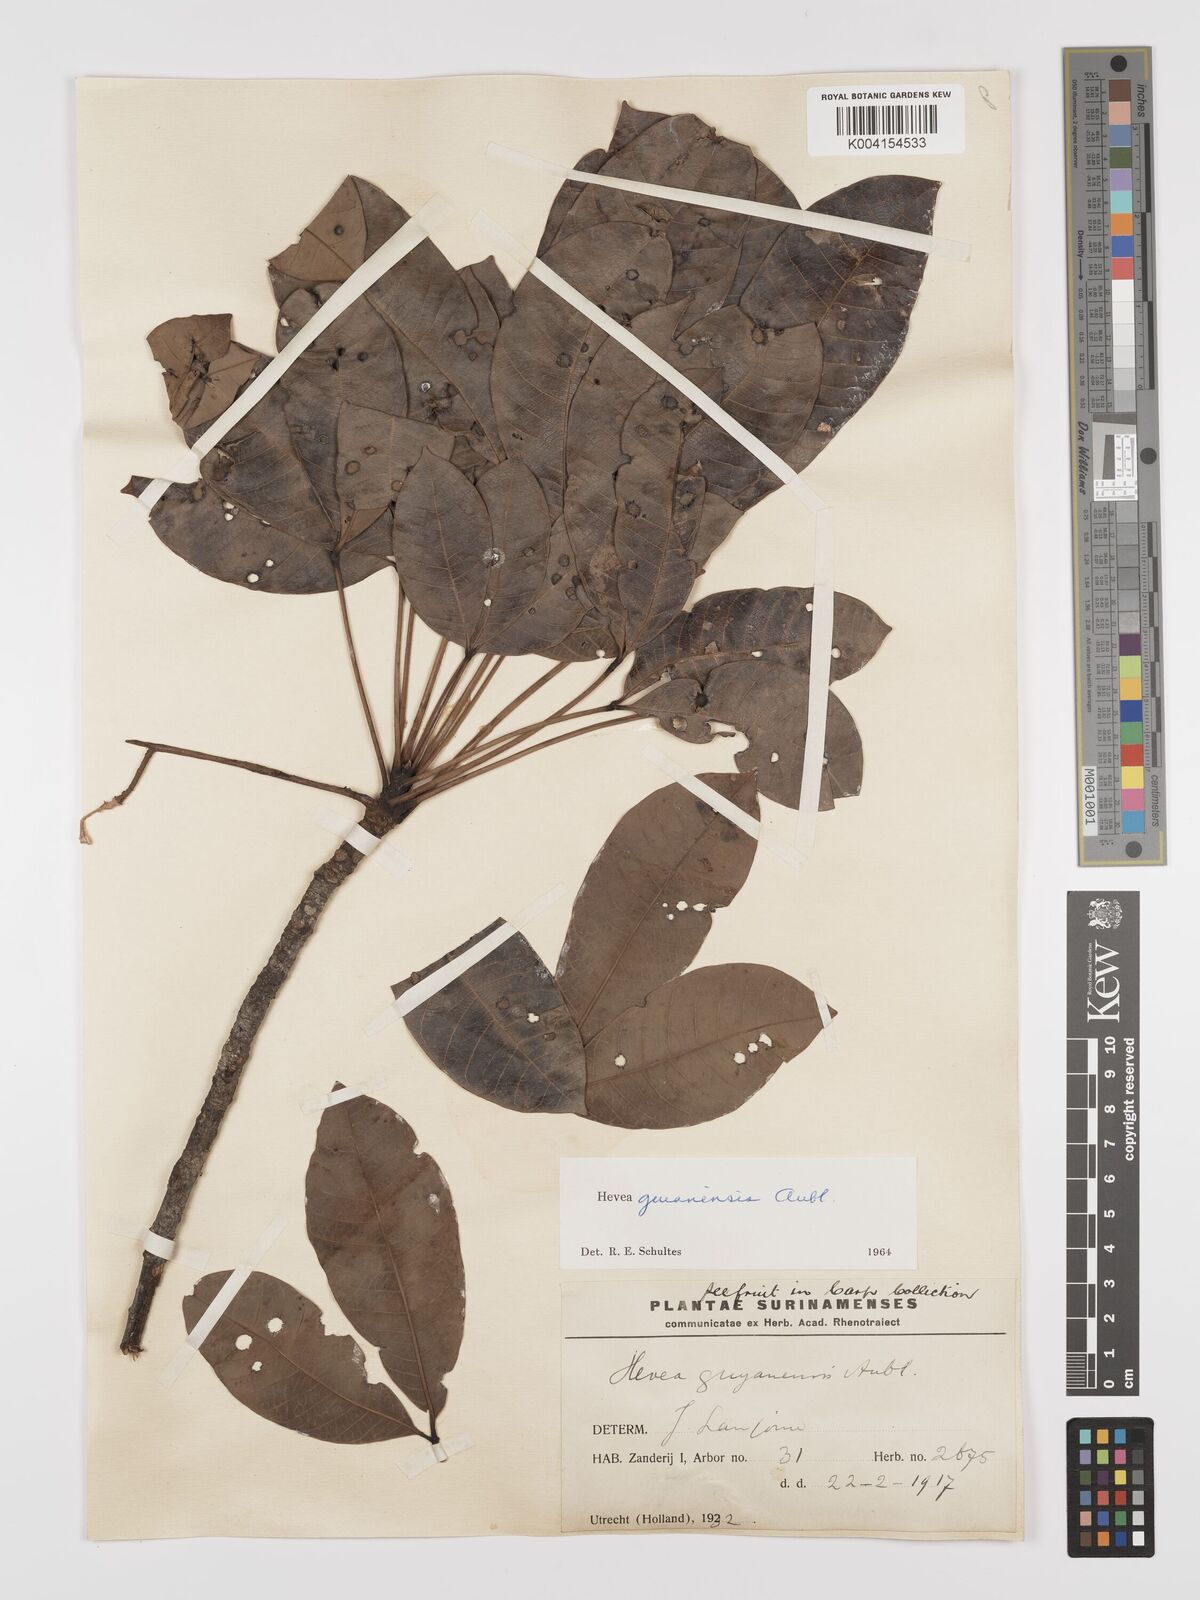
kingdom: Plantae
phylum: Tracheophyta
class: Magnoliopsida
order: Malpighiales
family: Euphorbiaceae
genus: Hevea
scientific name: Hevea guianensis
